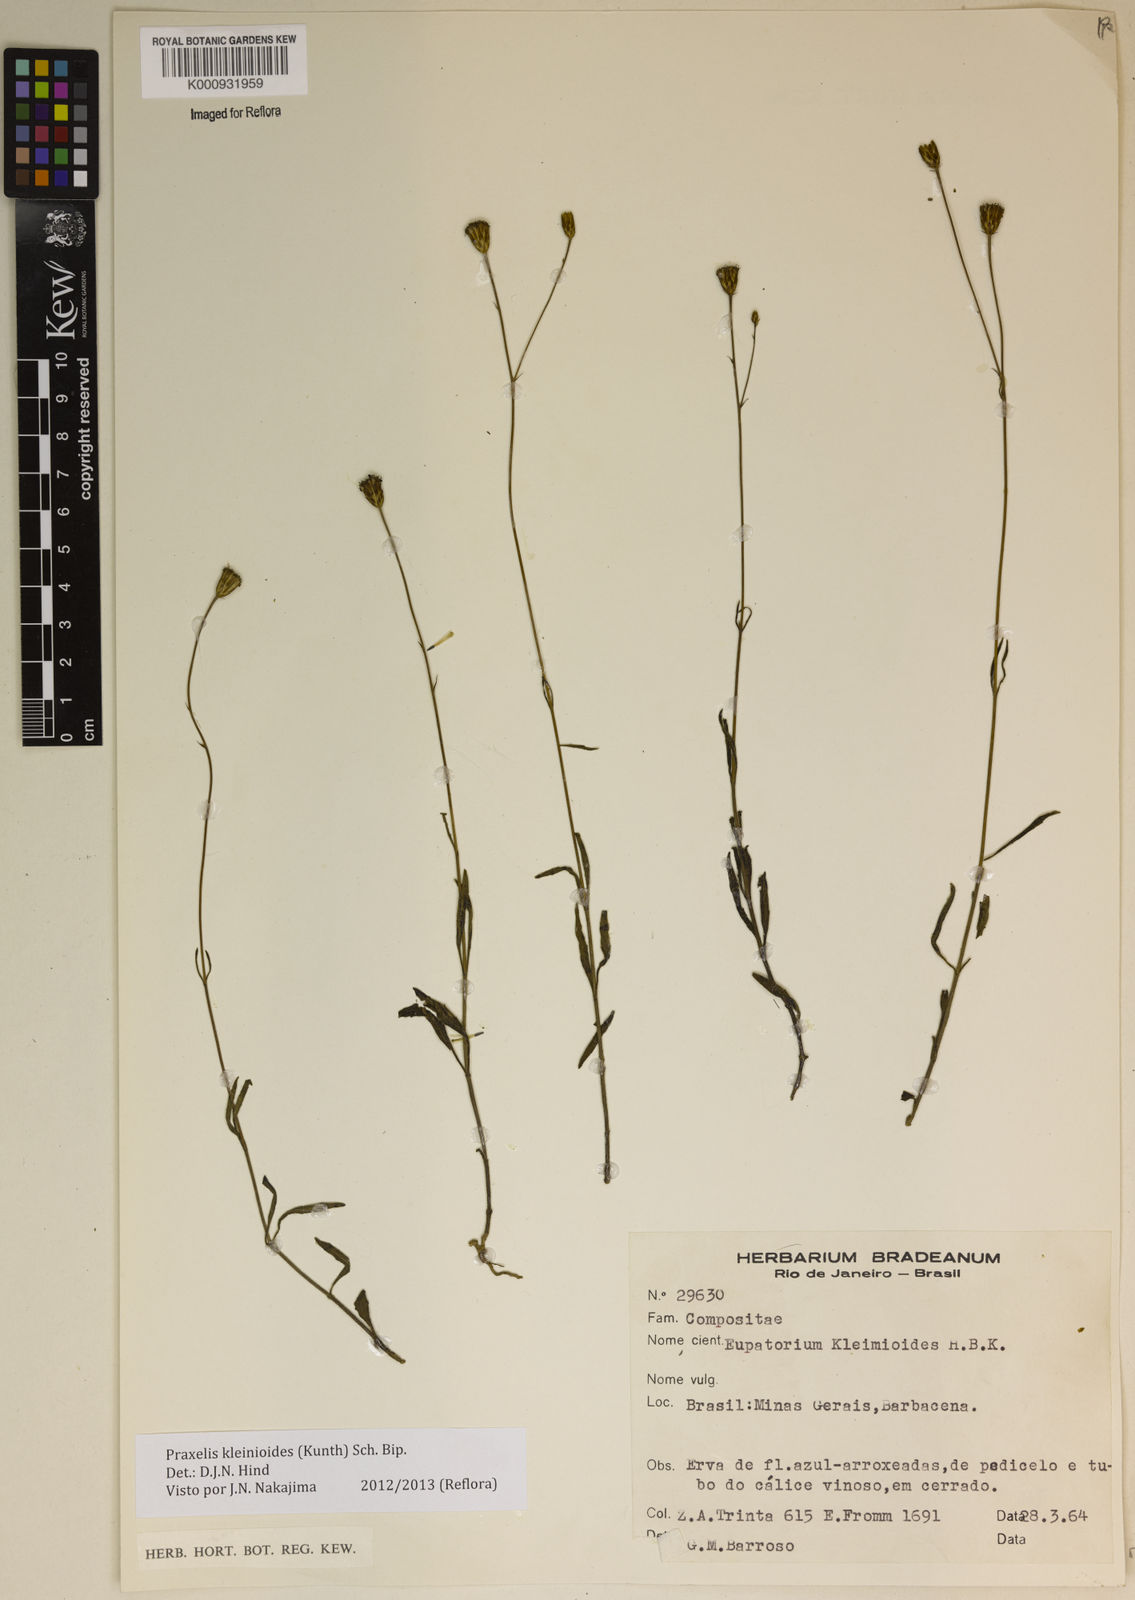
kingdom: Plantae
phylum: Tracheophyta
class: Magnoliopsida
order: Asterales
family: Asteraceae
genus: Praxelis
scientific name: Praxelis kleinioides
